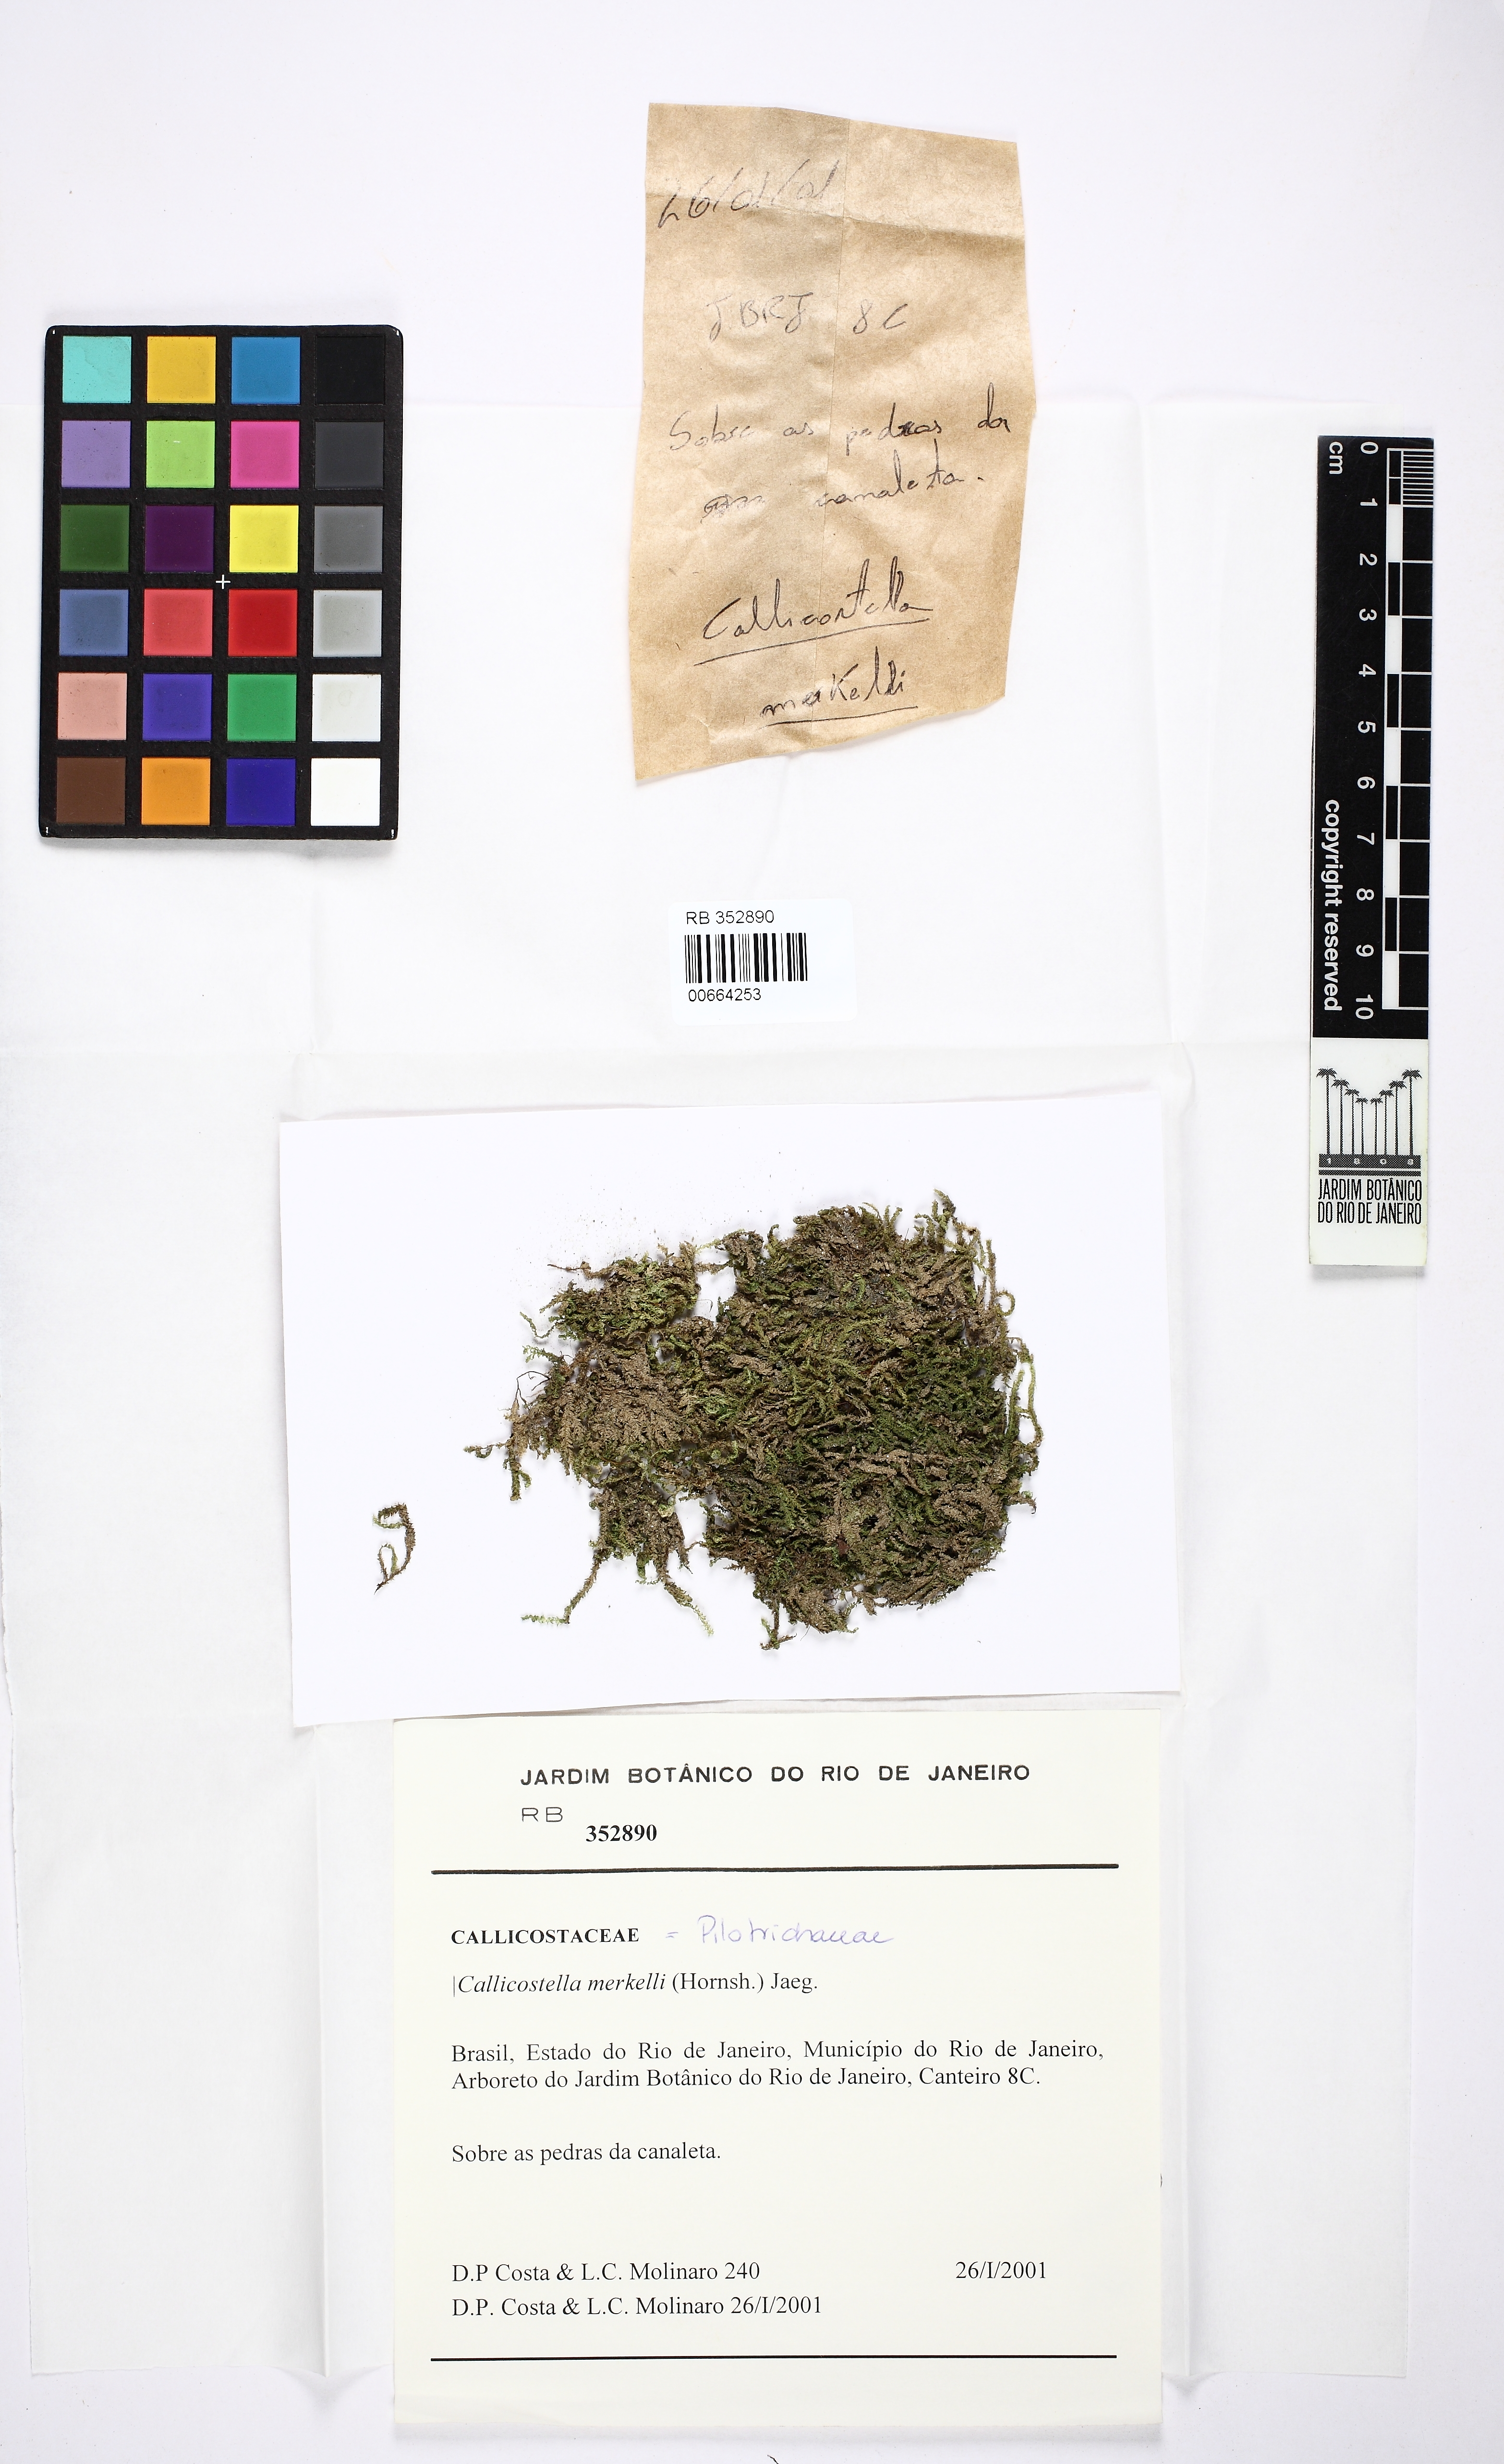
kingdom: Plantae
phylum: Bryophyta
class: Bryopsida
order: Hookeriales
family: Pilotrichaceae
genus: Callicostella
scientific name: Callicostella merkelii
